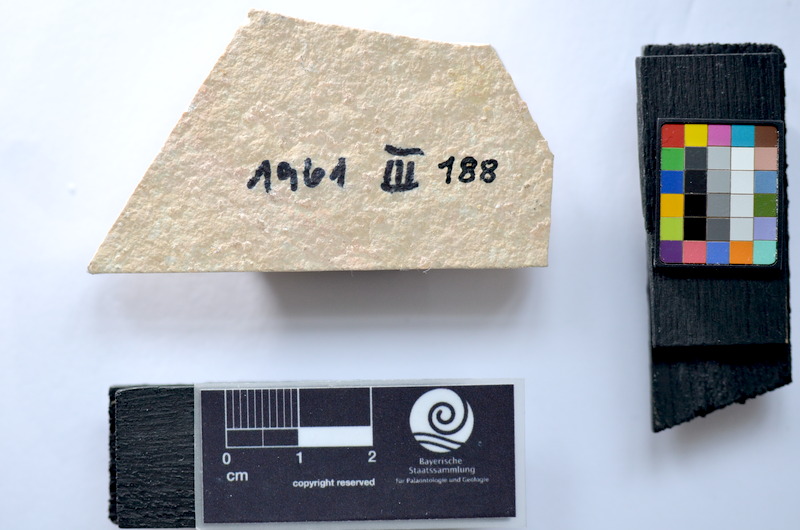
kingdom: Animalia
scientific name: Animalia
